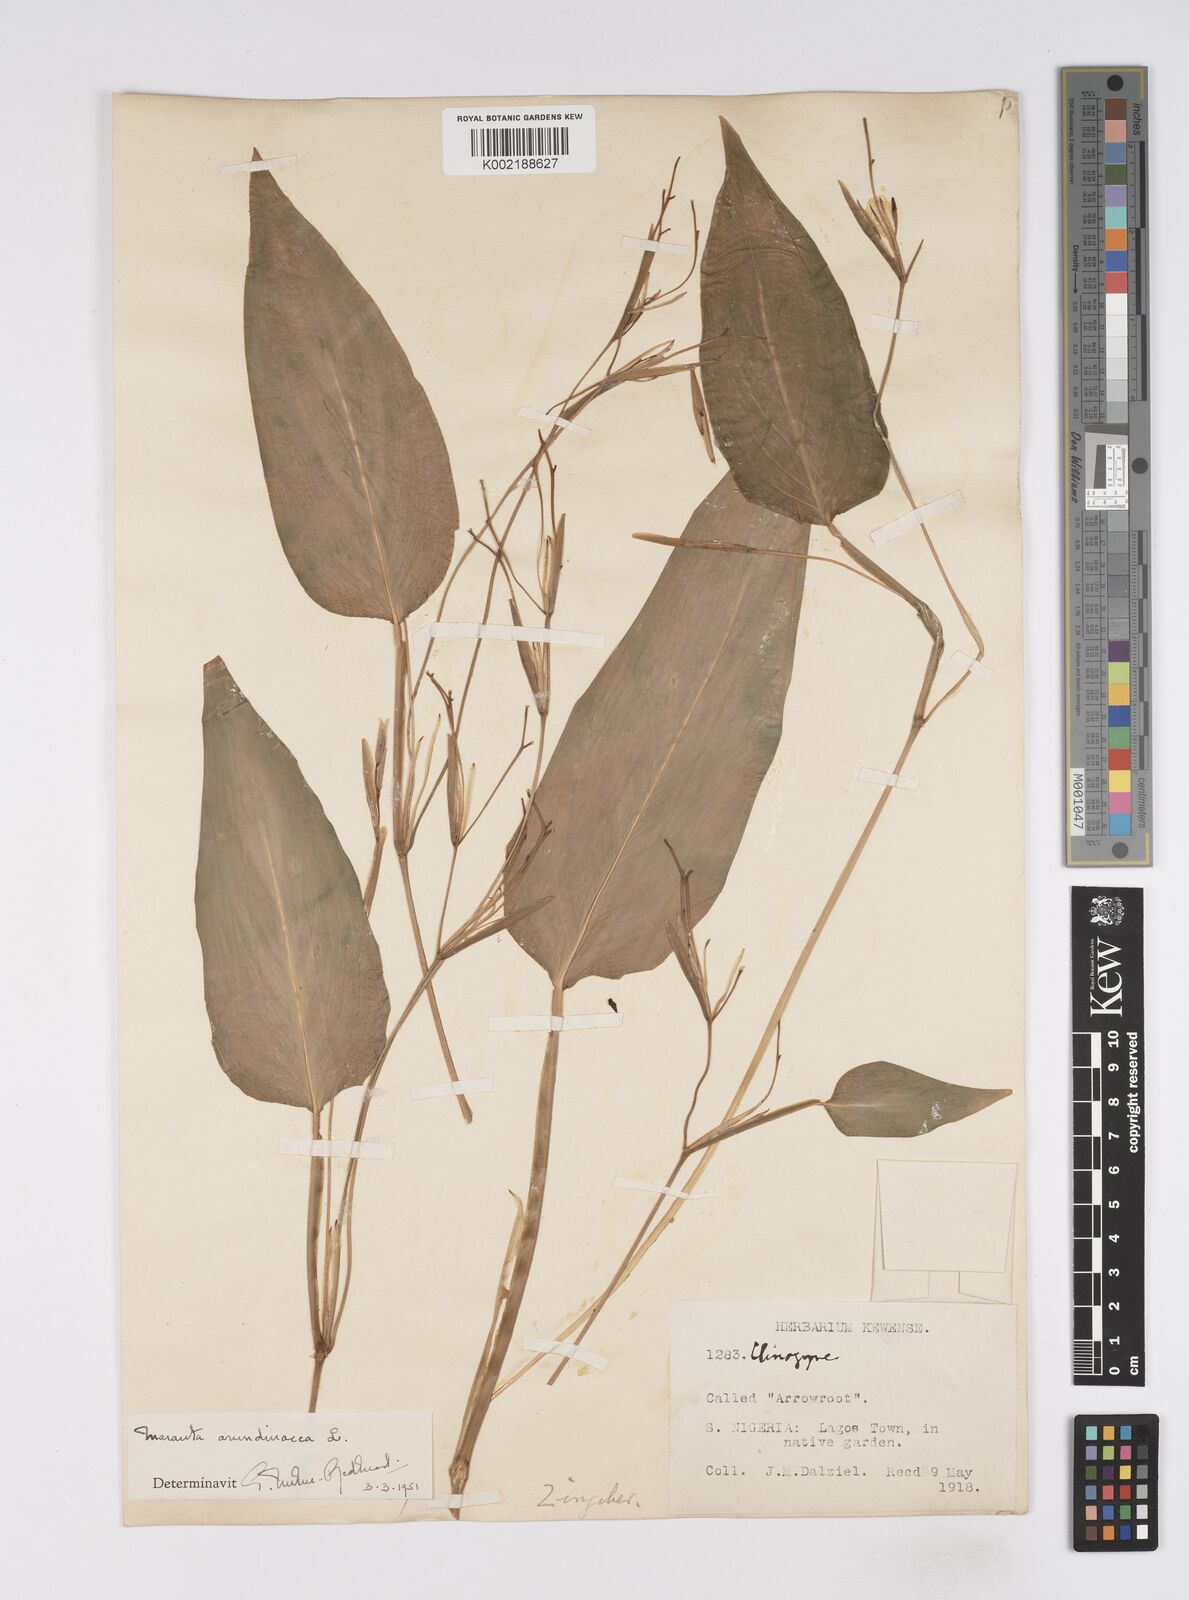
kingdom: Plantae
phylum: Tracheophyta
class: Liliopsida
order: Zingiberales
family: Marantaceae
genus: Maranta
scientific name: Maranta arundinacea
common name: Arrowroot
